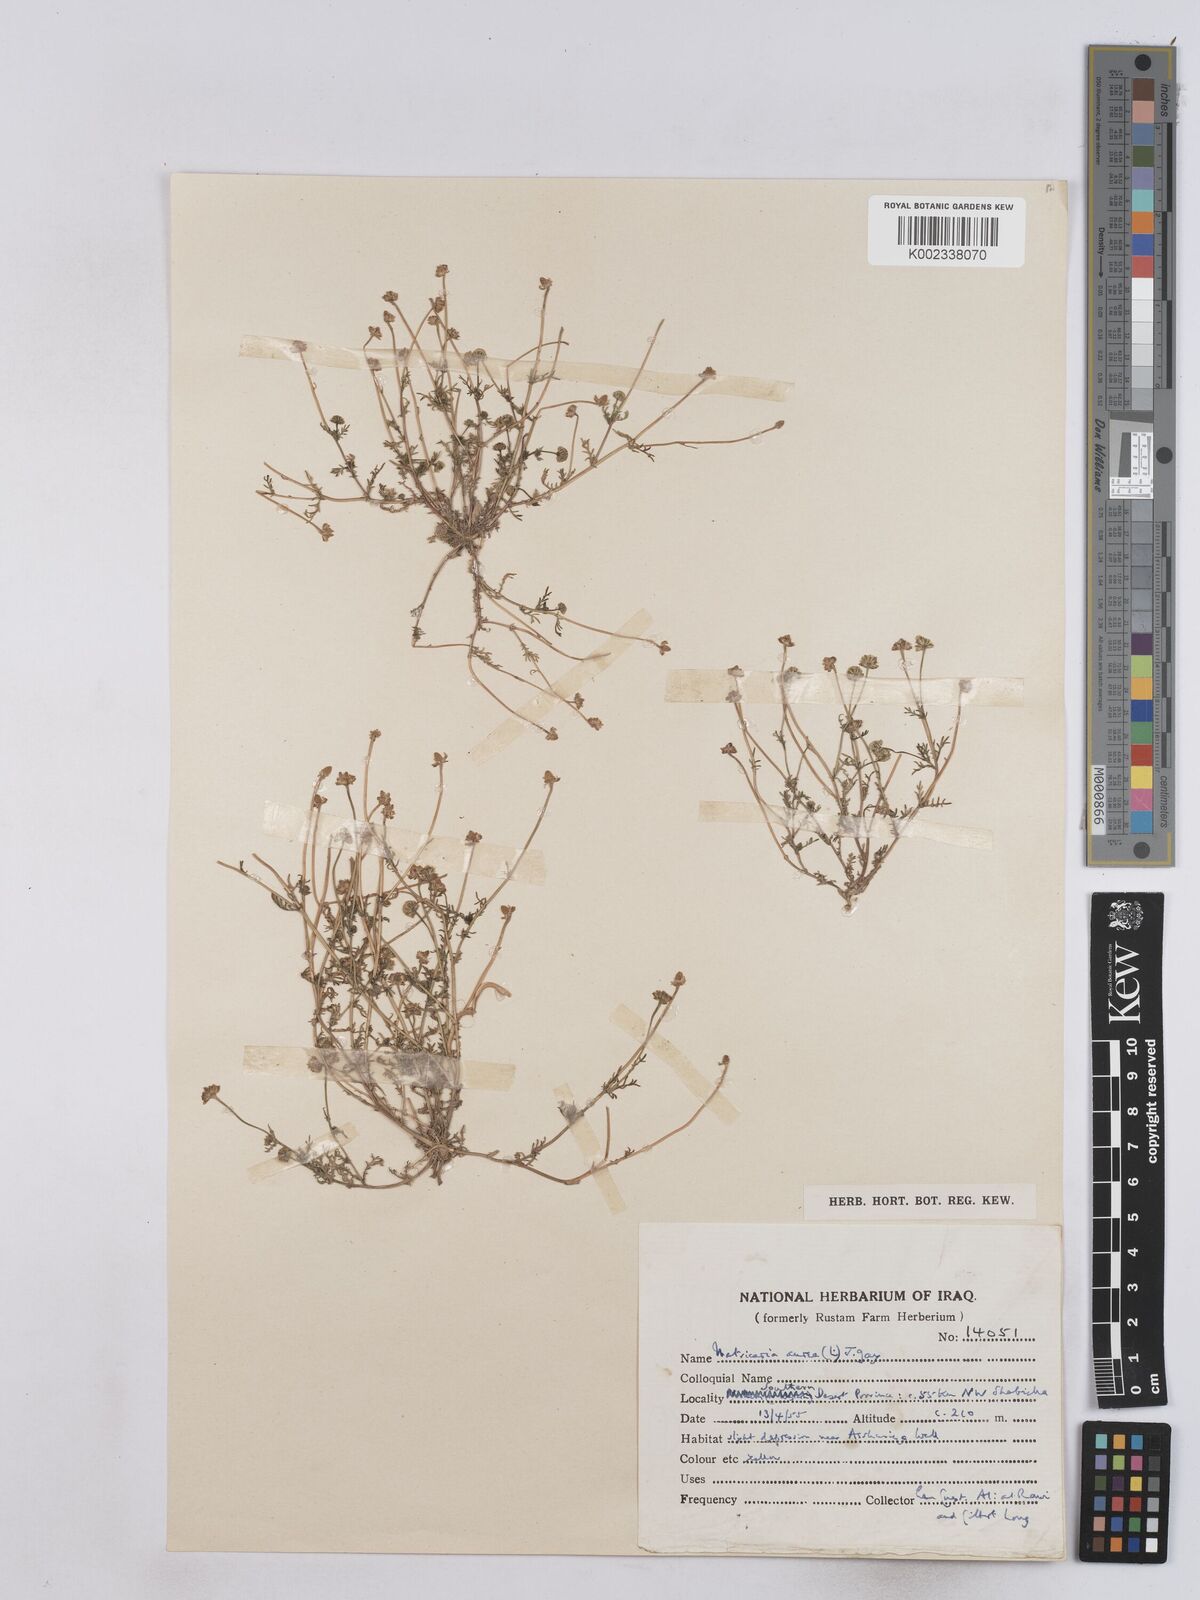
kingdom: Plantae
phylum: Tracheophyta
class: Magnoliopsida
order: Asterales
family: Asteraceae
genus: Matricaria
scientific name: Matricaria aurea
